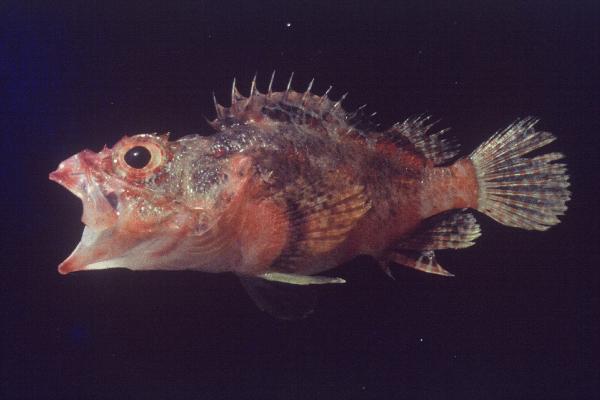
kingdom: Animalia
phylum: Chordata
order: Scorpaeniformes
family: Scorpaenidae
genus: Scorpaenodes
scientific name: Scorpaenodes varipinnis
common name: Blotchfin scorpionfish
